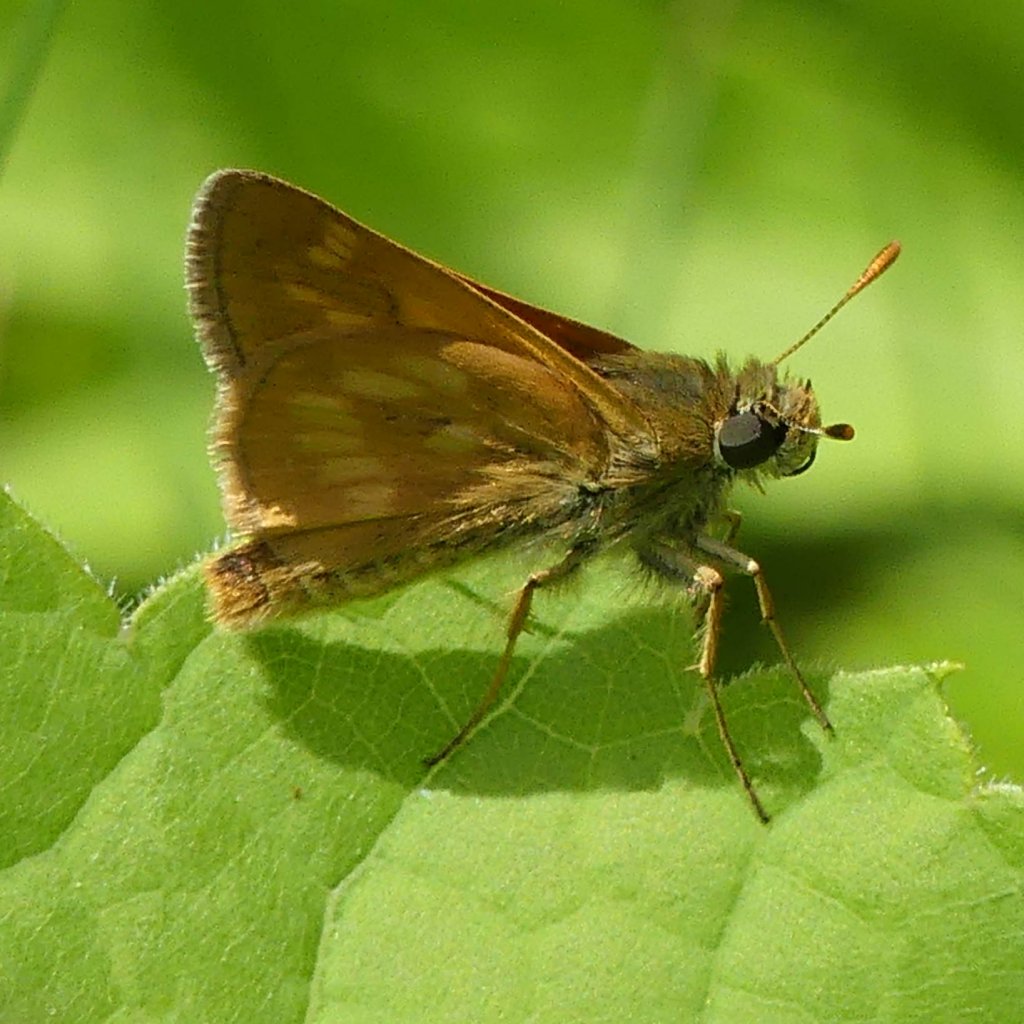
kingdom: Animalia
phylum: Arthropoda
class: Insecta
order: Lepidoptera
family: Hesperiidae
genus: Polites
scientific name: Polites
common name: Long Dash Skipper
